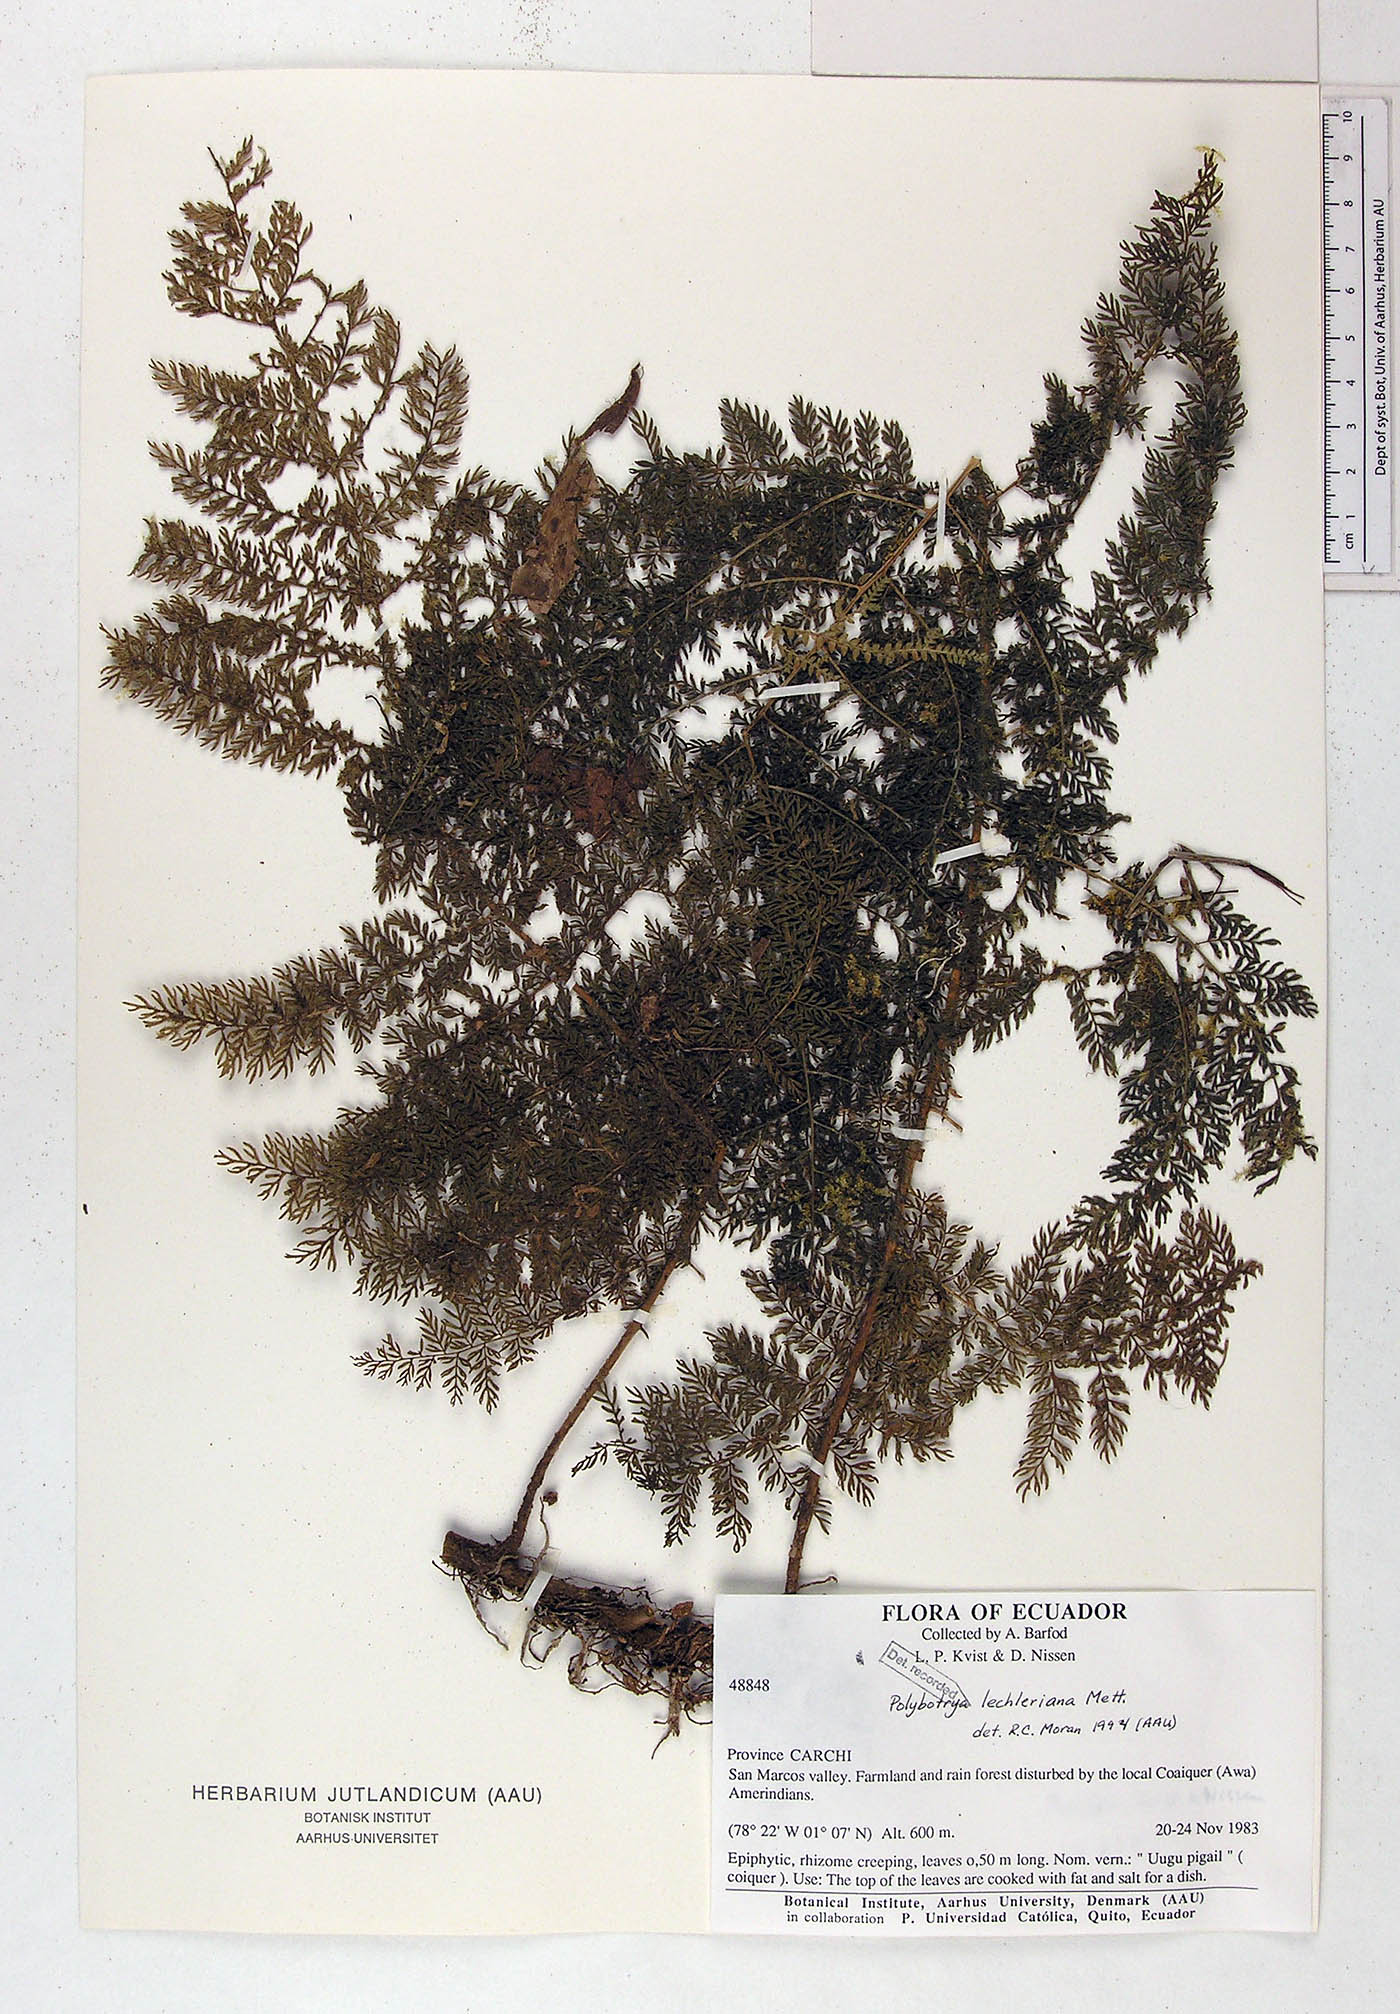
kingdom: Plantae
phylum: Tracheophyta
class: Polypodiopsida
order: Polypodiales
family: Dryopteridaceae
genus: Polybotrya
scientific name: Polybotrya lechleriana
